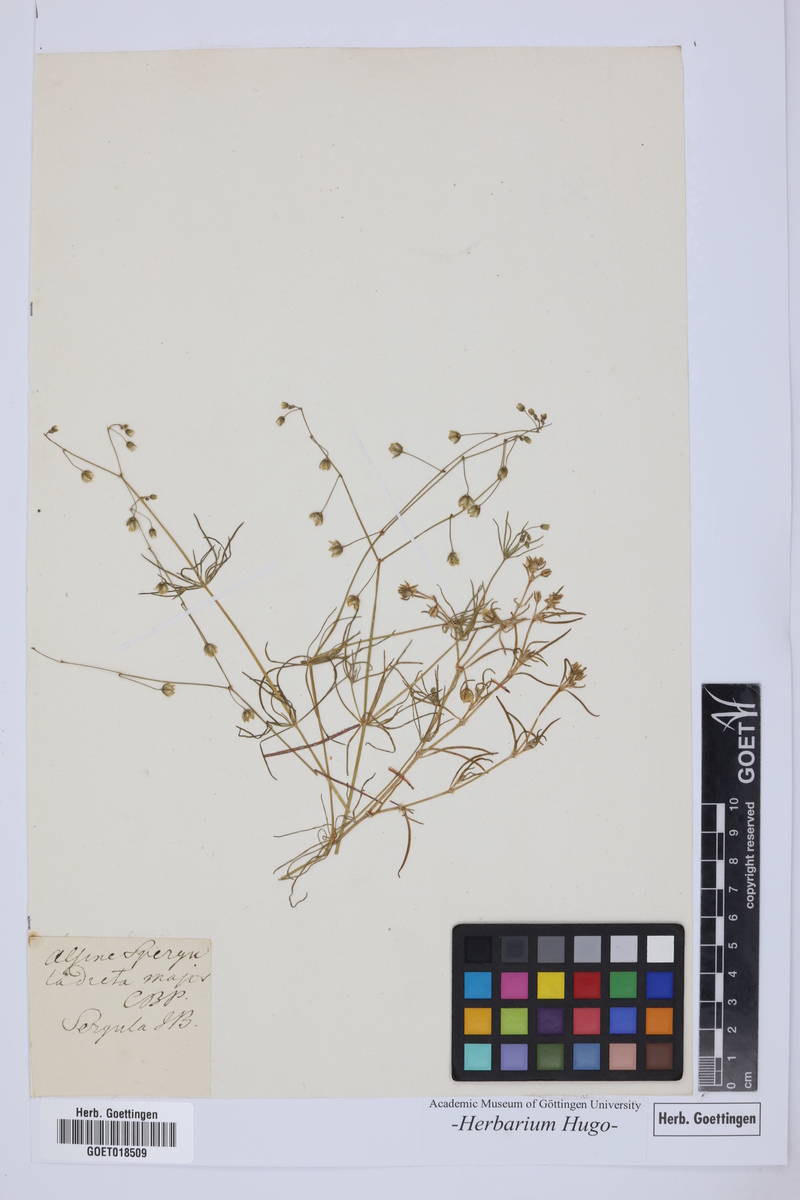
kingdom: Plantae
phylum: Tracheophyta
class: Magnoliopsida
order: Caryophyllales
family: Caryophyllaceae
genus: Spergula
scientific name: Spergula arvensis
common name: Corn spurrey
